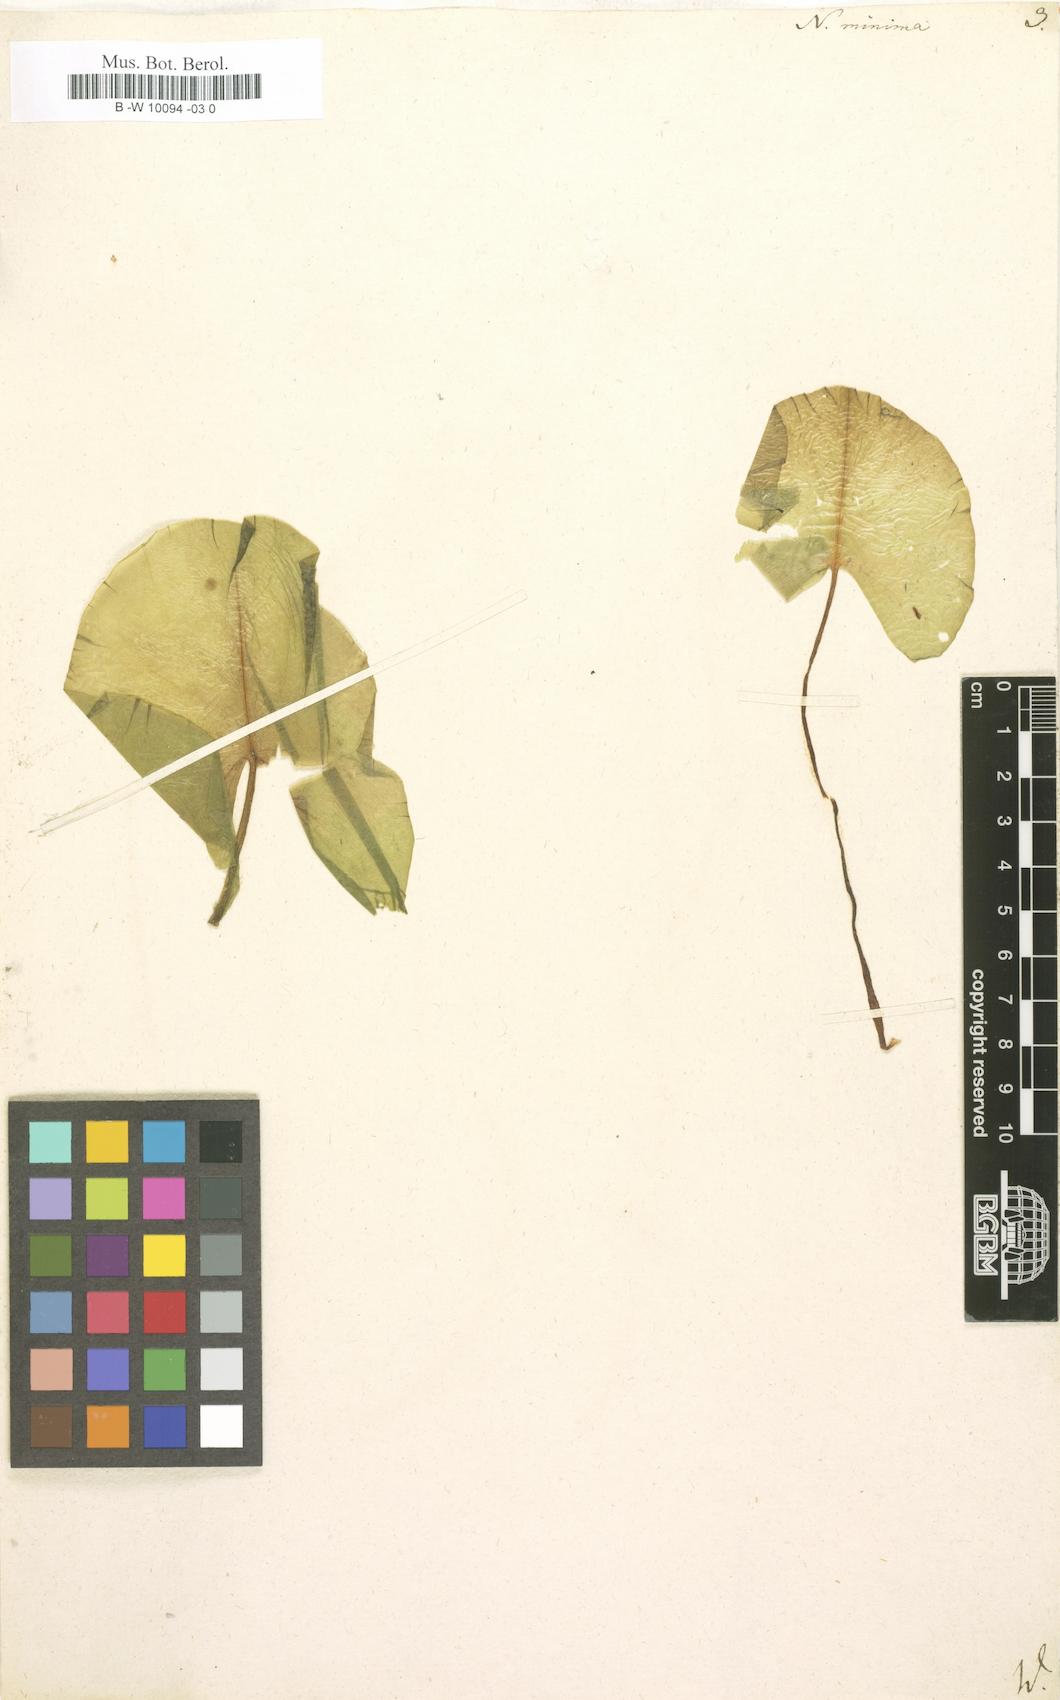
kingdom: Plantae
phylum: Tracheophyta
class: Magnoliopsida
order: Nymphaeales
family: Nymphaeaceae
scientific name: Nymphaeaceae
